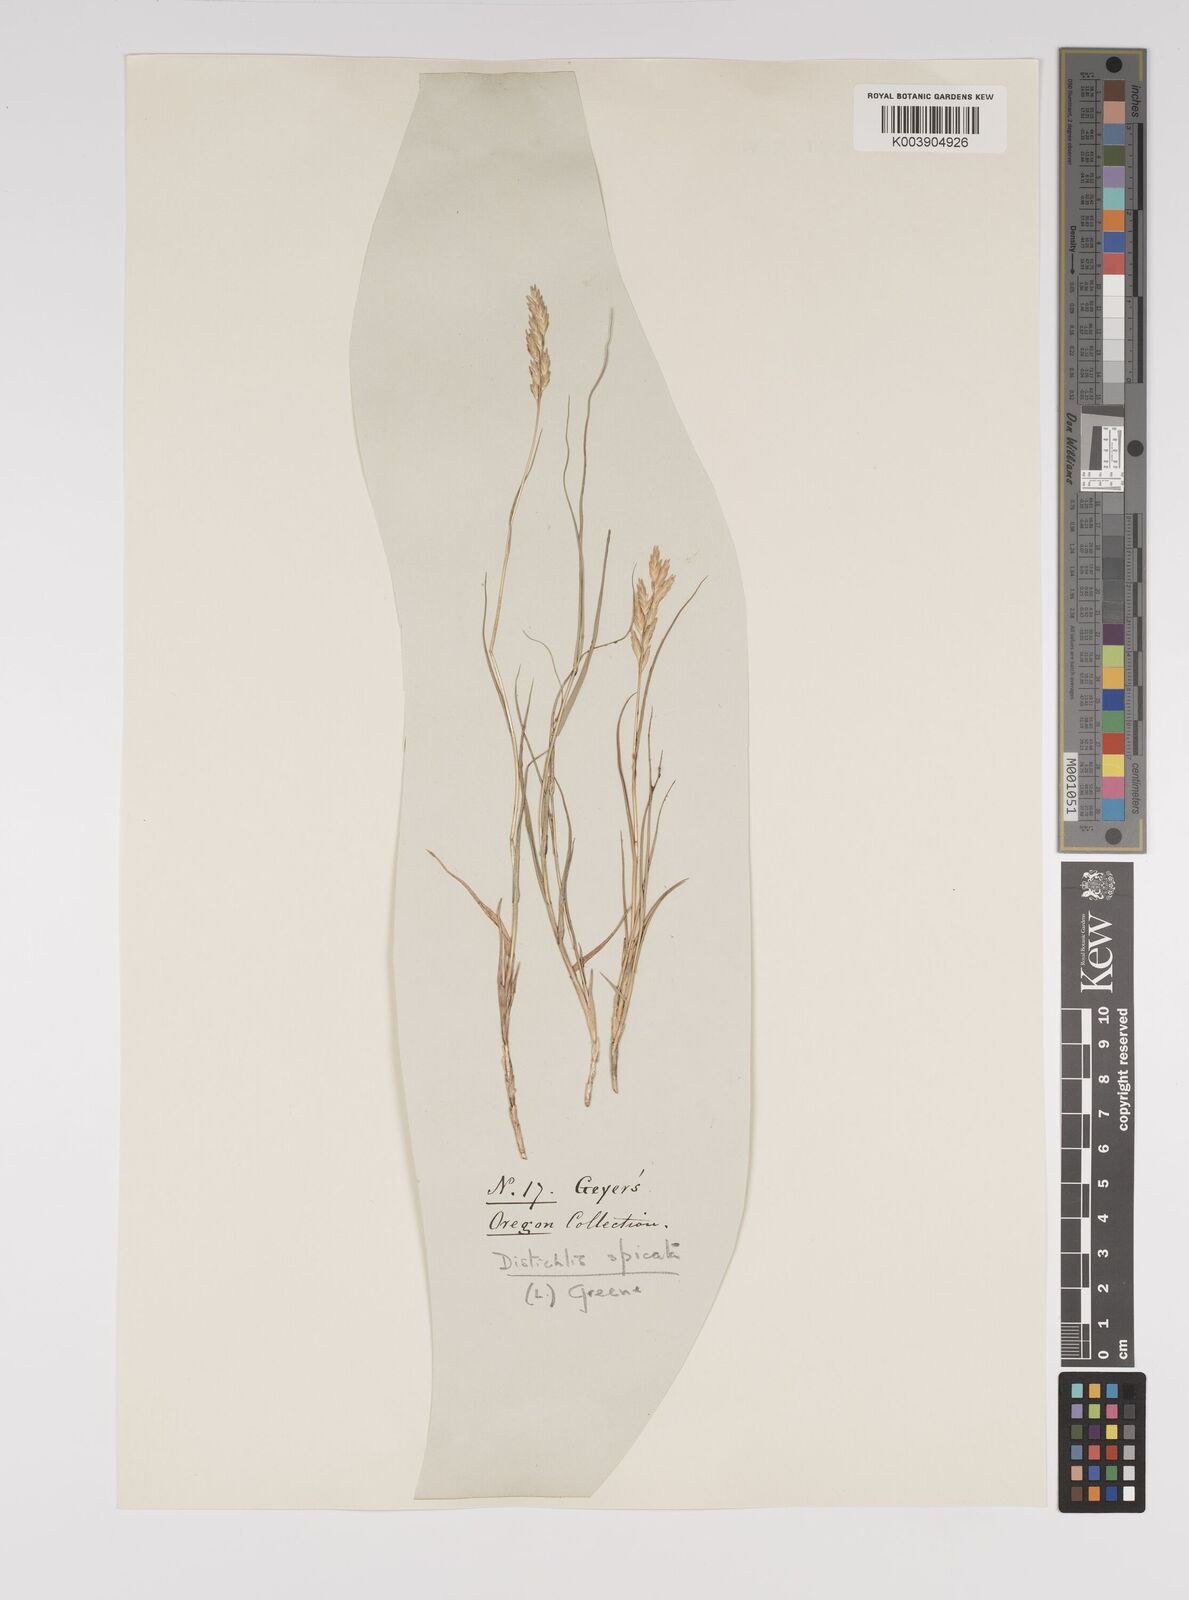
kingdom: Plantae
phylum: Tracheophyta
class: Liliopsida
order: Poales
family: Poaceae
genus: Distichlis
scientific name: Distichlis spicata
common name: Saltgrass
